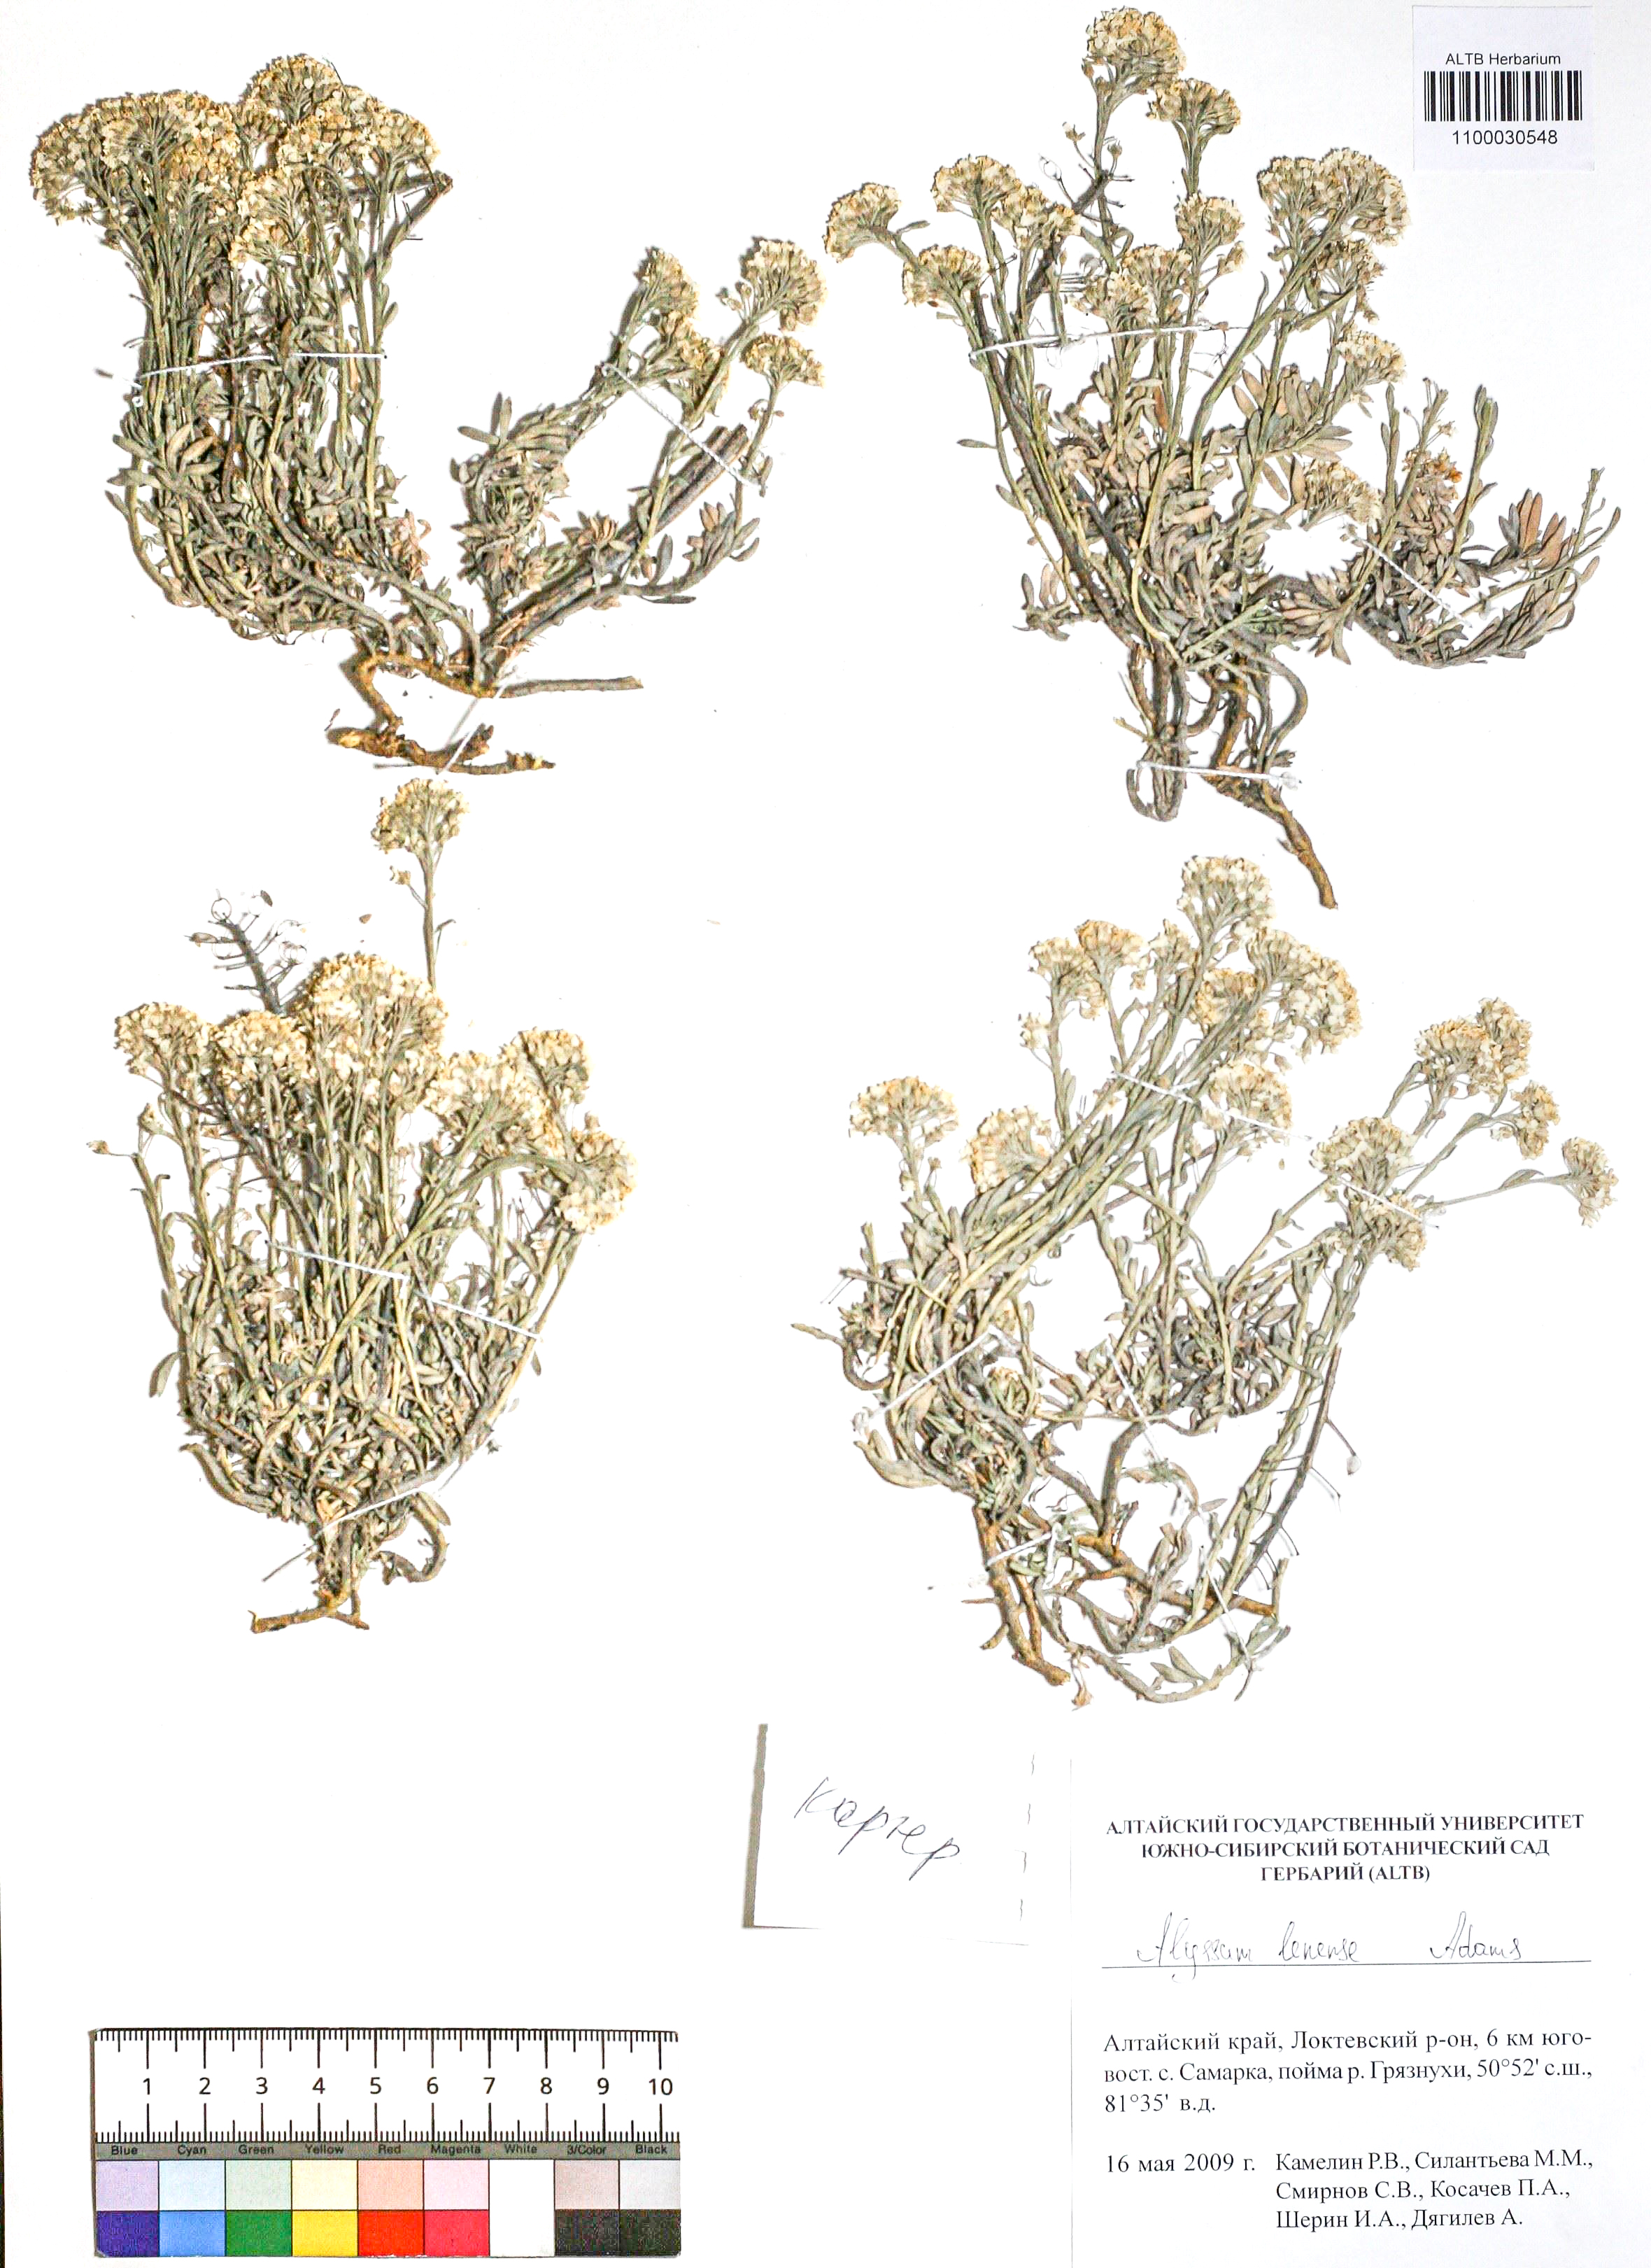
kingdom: Plantae
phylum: Tracheophyta
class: Magnoliopsida
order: Brassicales
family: Brassicaceae
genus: Alyssum
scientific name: Alyssum lenense
